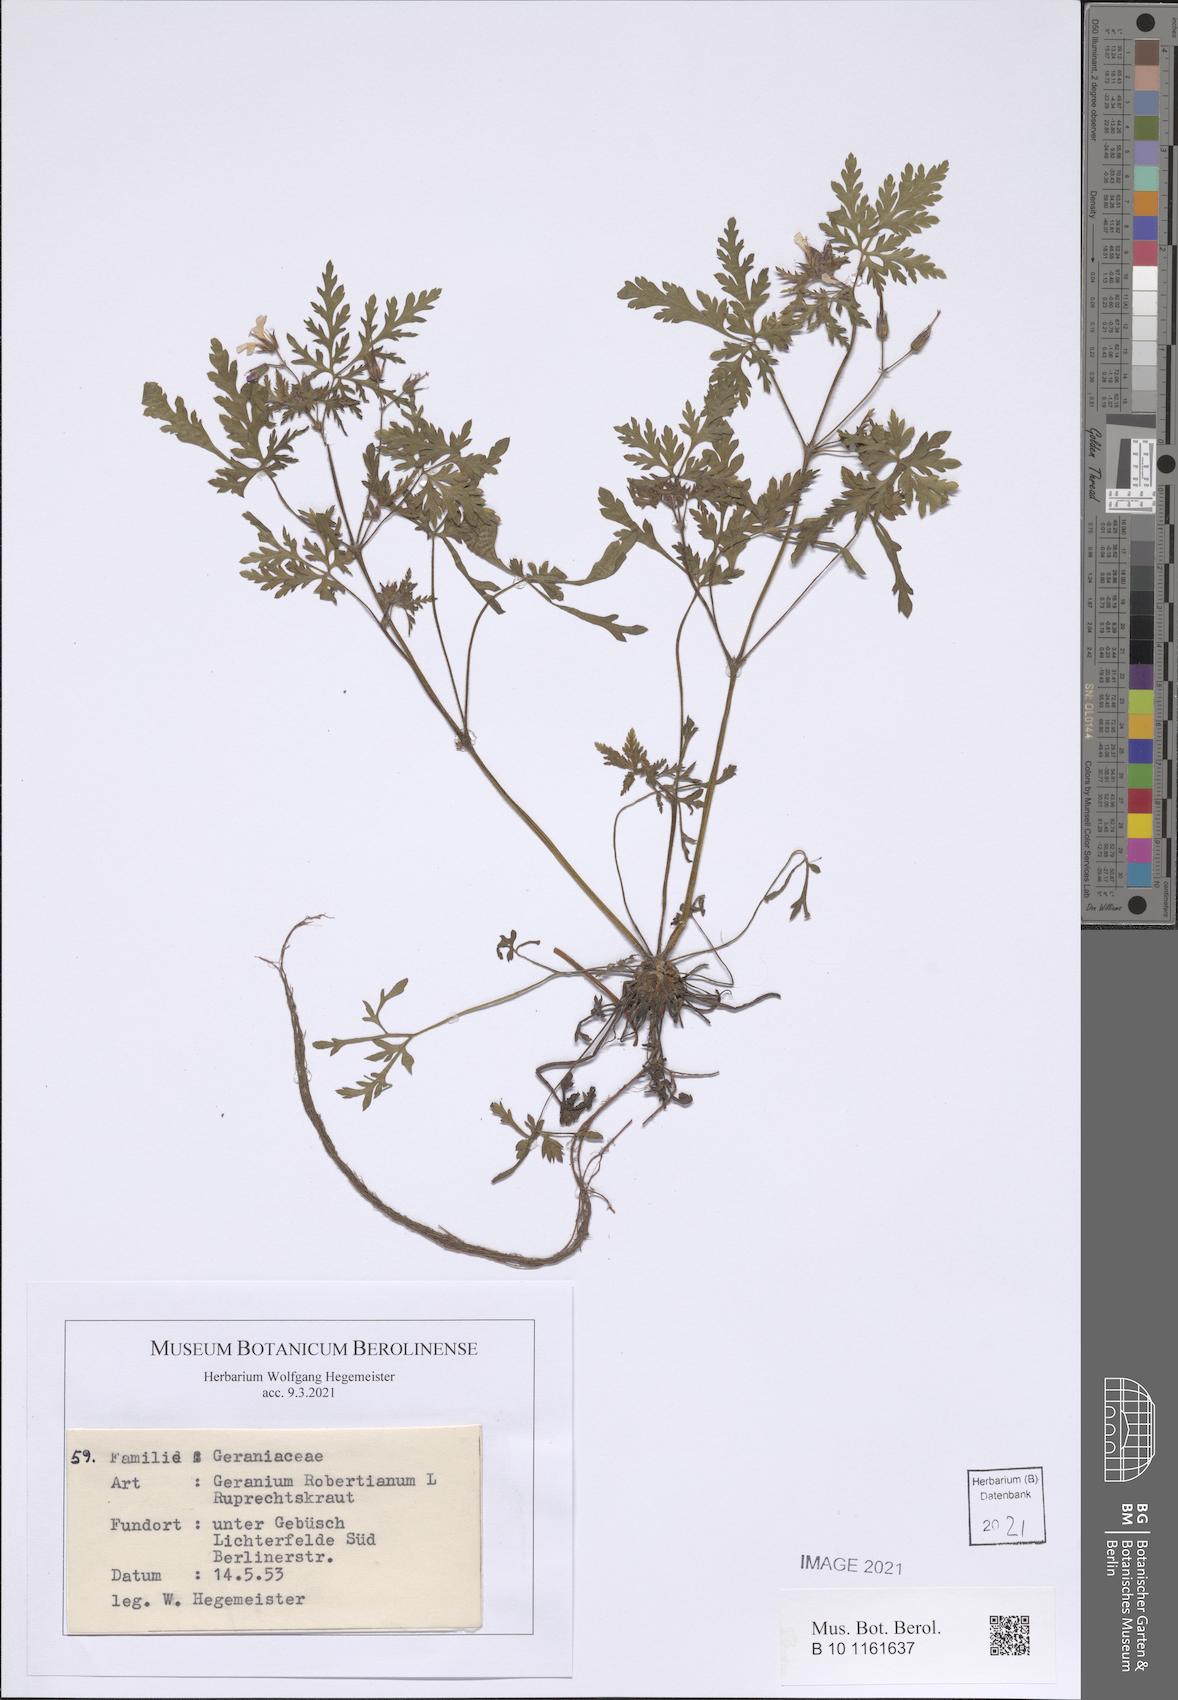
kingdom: Plantae
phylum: Tracheophyta
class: Magnoliopsida
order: Geraniales
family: Geraniaceae
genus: Geranium
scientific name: Geranium robertianum
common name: Herb-robert
